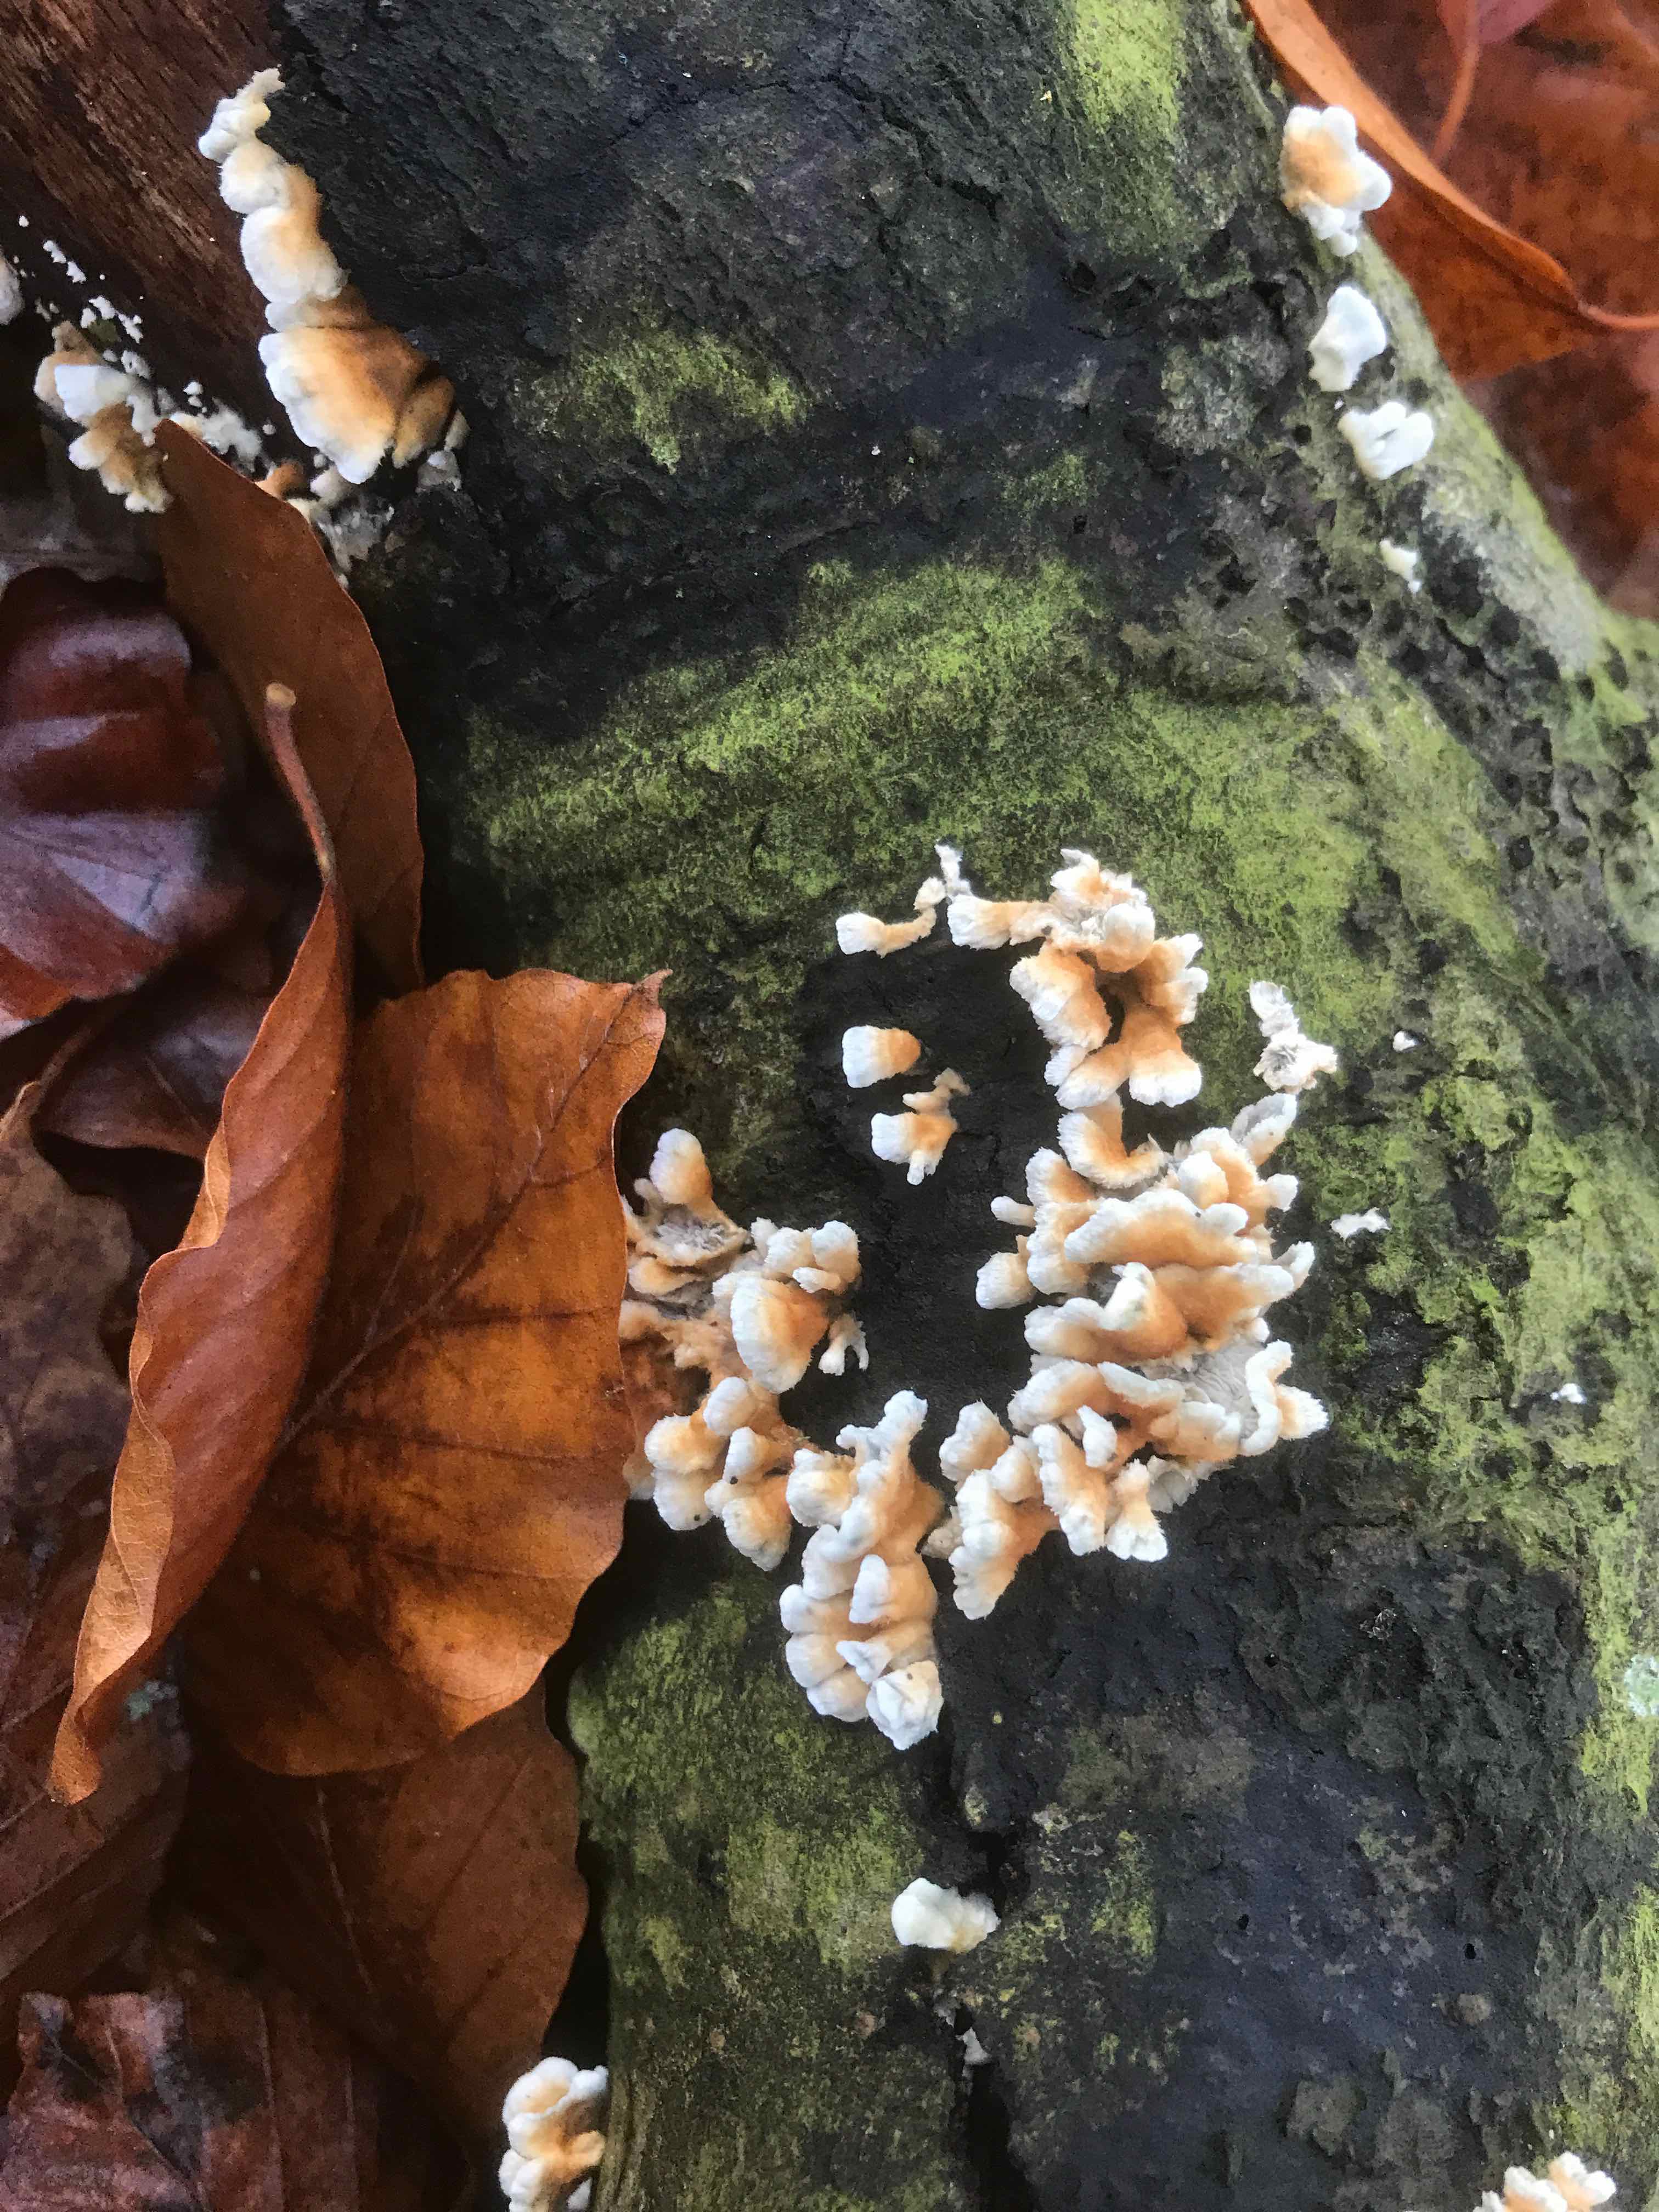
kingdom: Fungi
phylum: Basidiomycota
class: Agaricomycetes
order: Amylocorticiales
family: Amylocorticiaceae
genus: Plicaturopsis
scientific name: Plicaturopsis crispa
